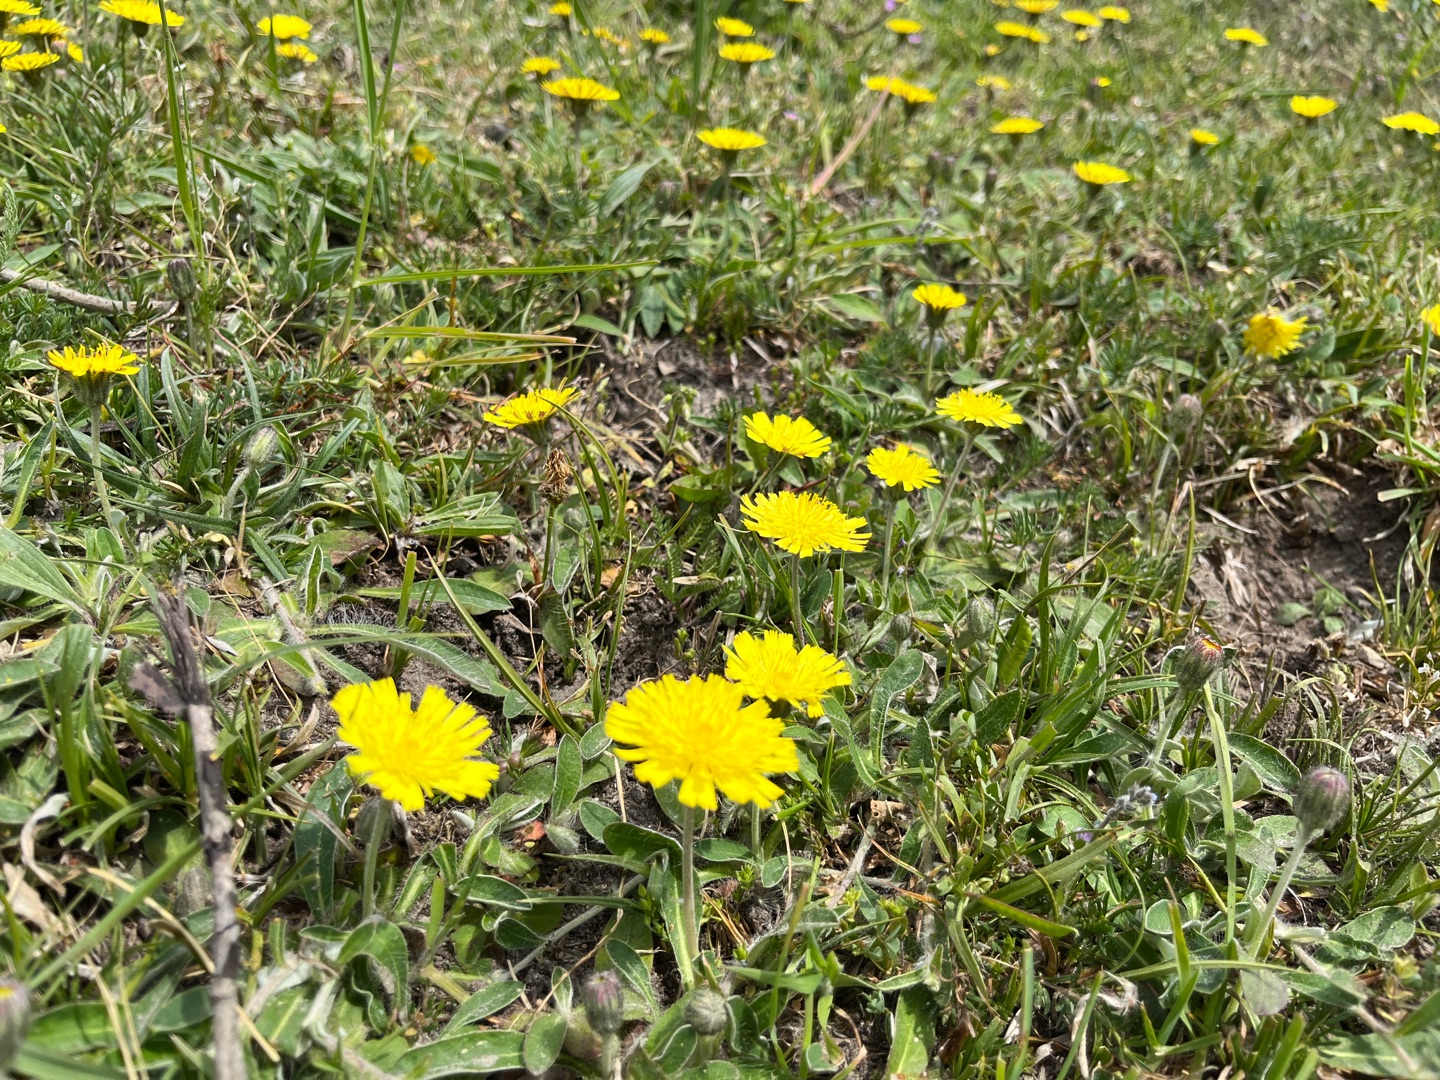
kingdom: Plantae
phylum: Tracheophyta
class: Magnoliopsida
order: Asterales
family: Asteraceae
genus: Pilosella
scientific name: Pilosella officinarum
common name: Håret høgeurt
